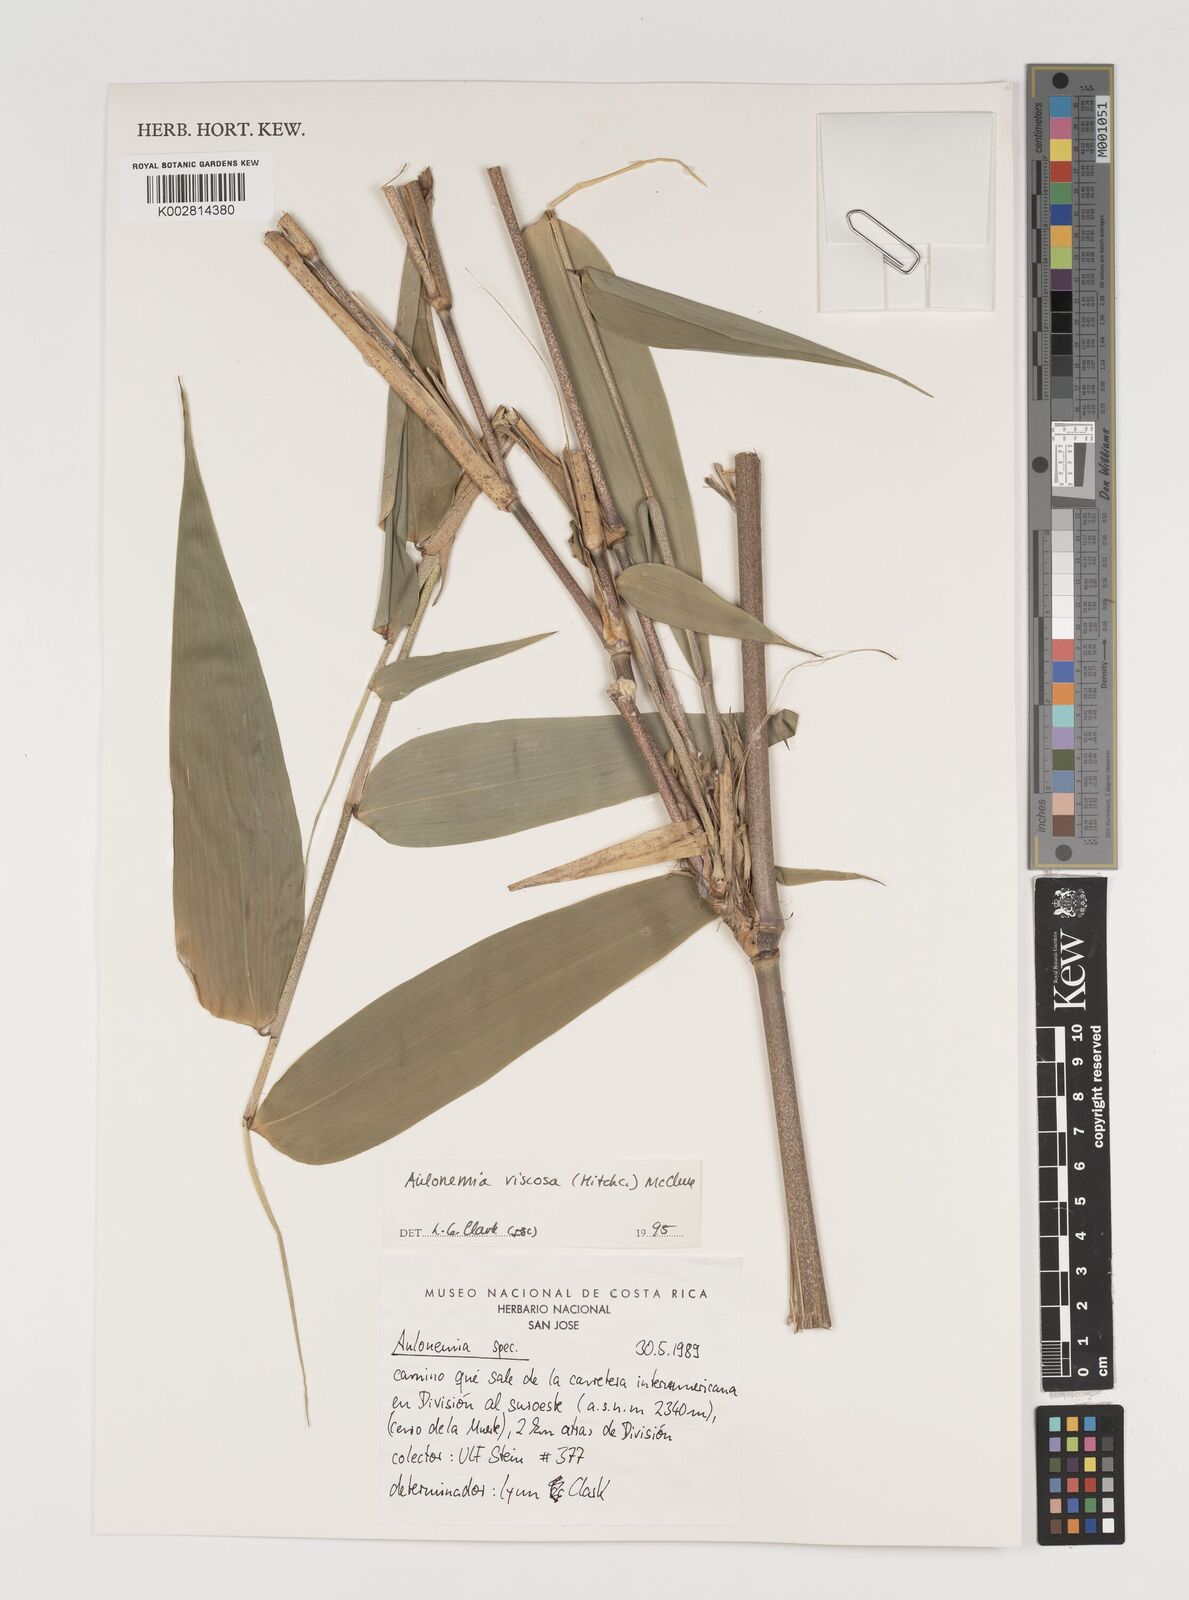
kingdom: Plantae
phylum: Tracheophyta
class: Liliopsida
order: Poales
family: Poaceae
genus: Aulonemia
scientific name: Aulonemia viscosa
